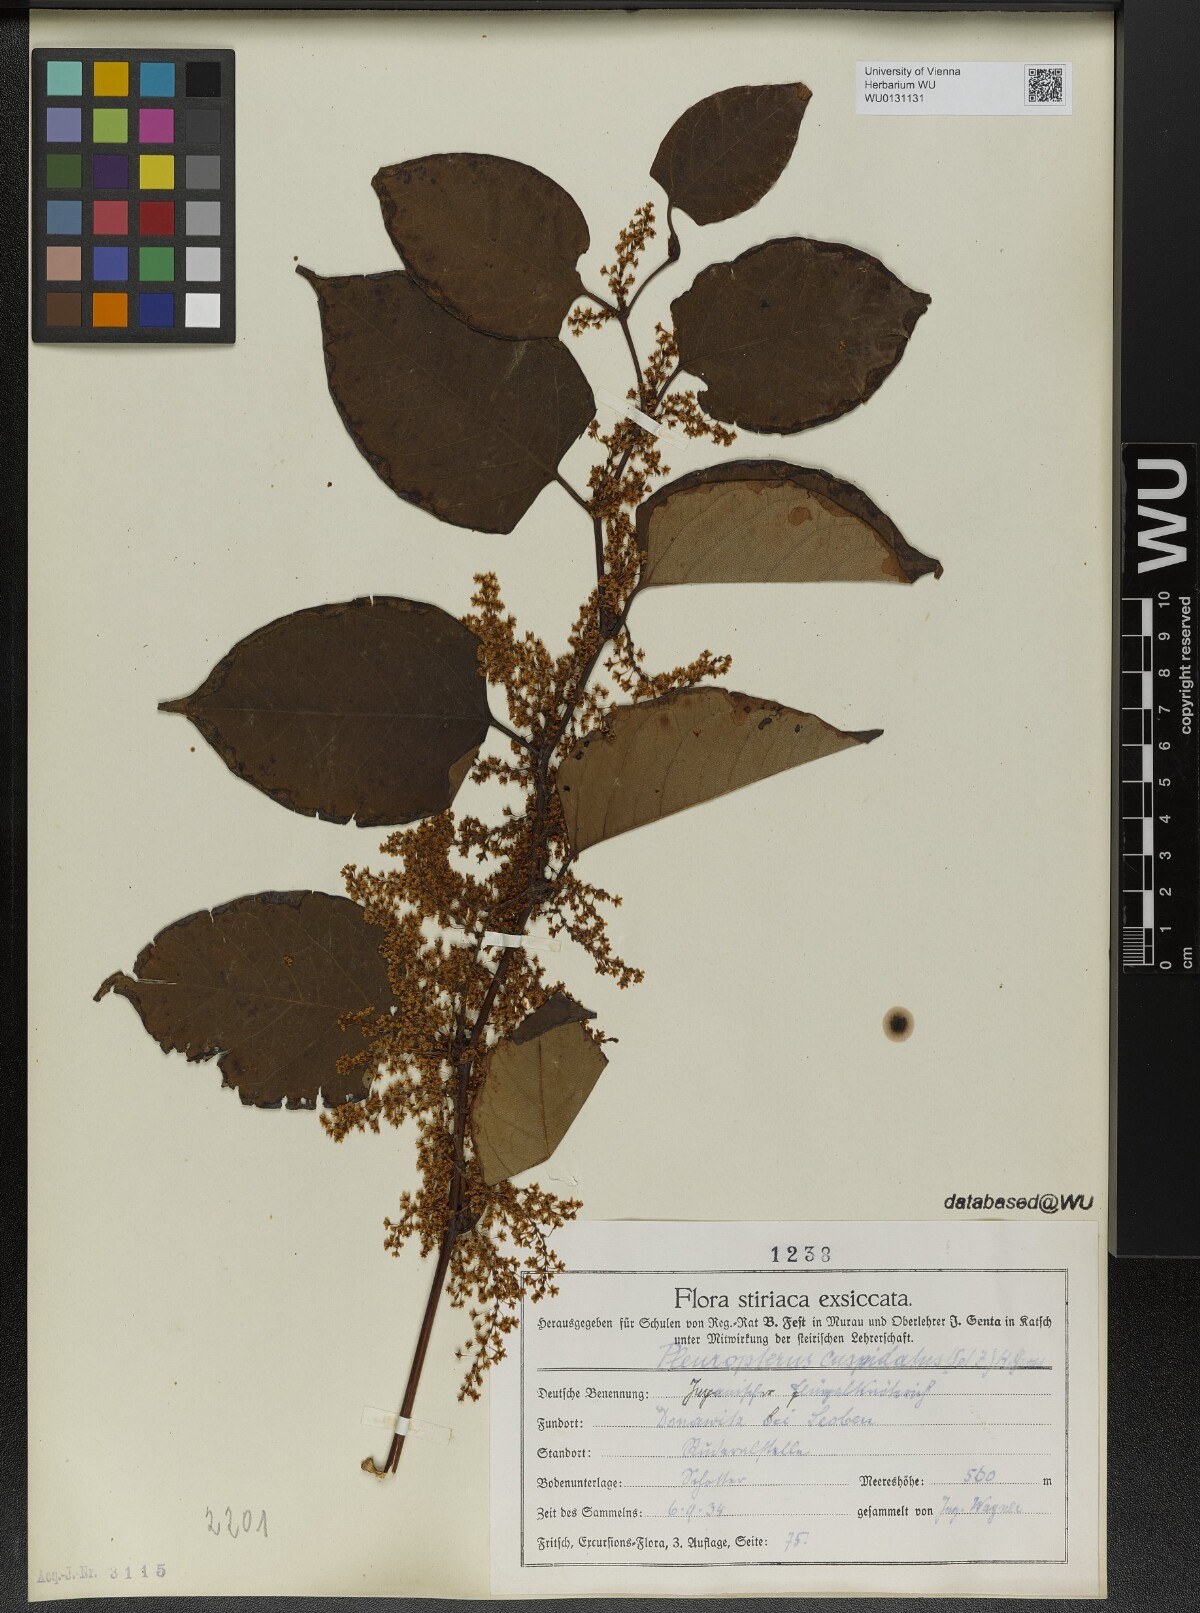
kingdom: Plantae
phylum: Tracheophyta
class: Magnoliopsida
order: Caryophyllales
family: Polygonaceae
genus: Reynoutria
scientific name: Reynoutria japonica
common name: Japanese knotweed
